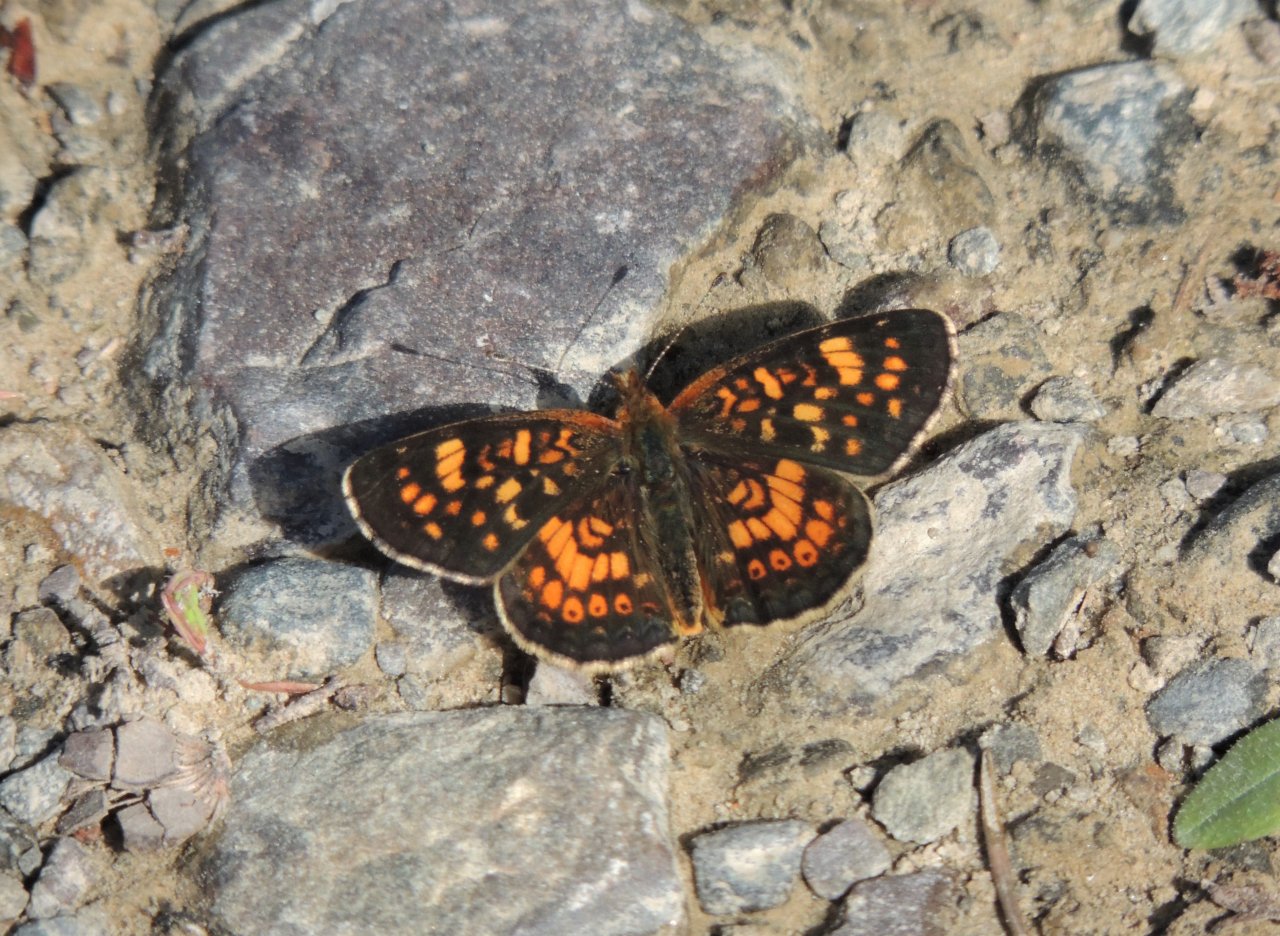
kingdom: Animalia
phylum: Arthropoda
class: Insecta
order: Lepidoptera
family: Nymphalidae
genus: Phyciodes
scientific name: Phyciodes tharos
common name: Field Crescent
